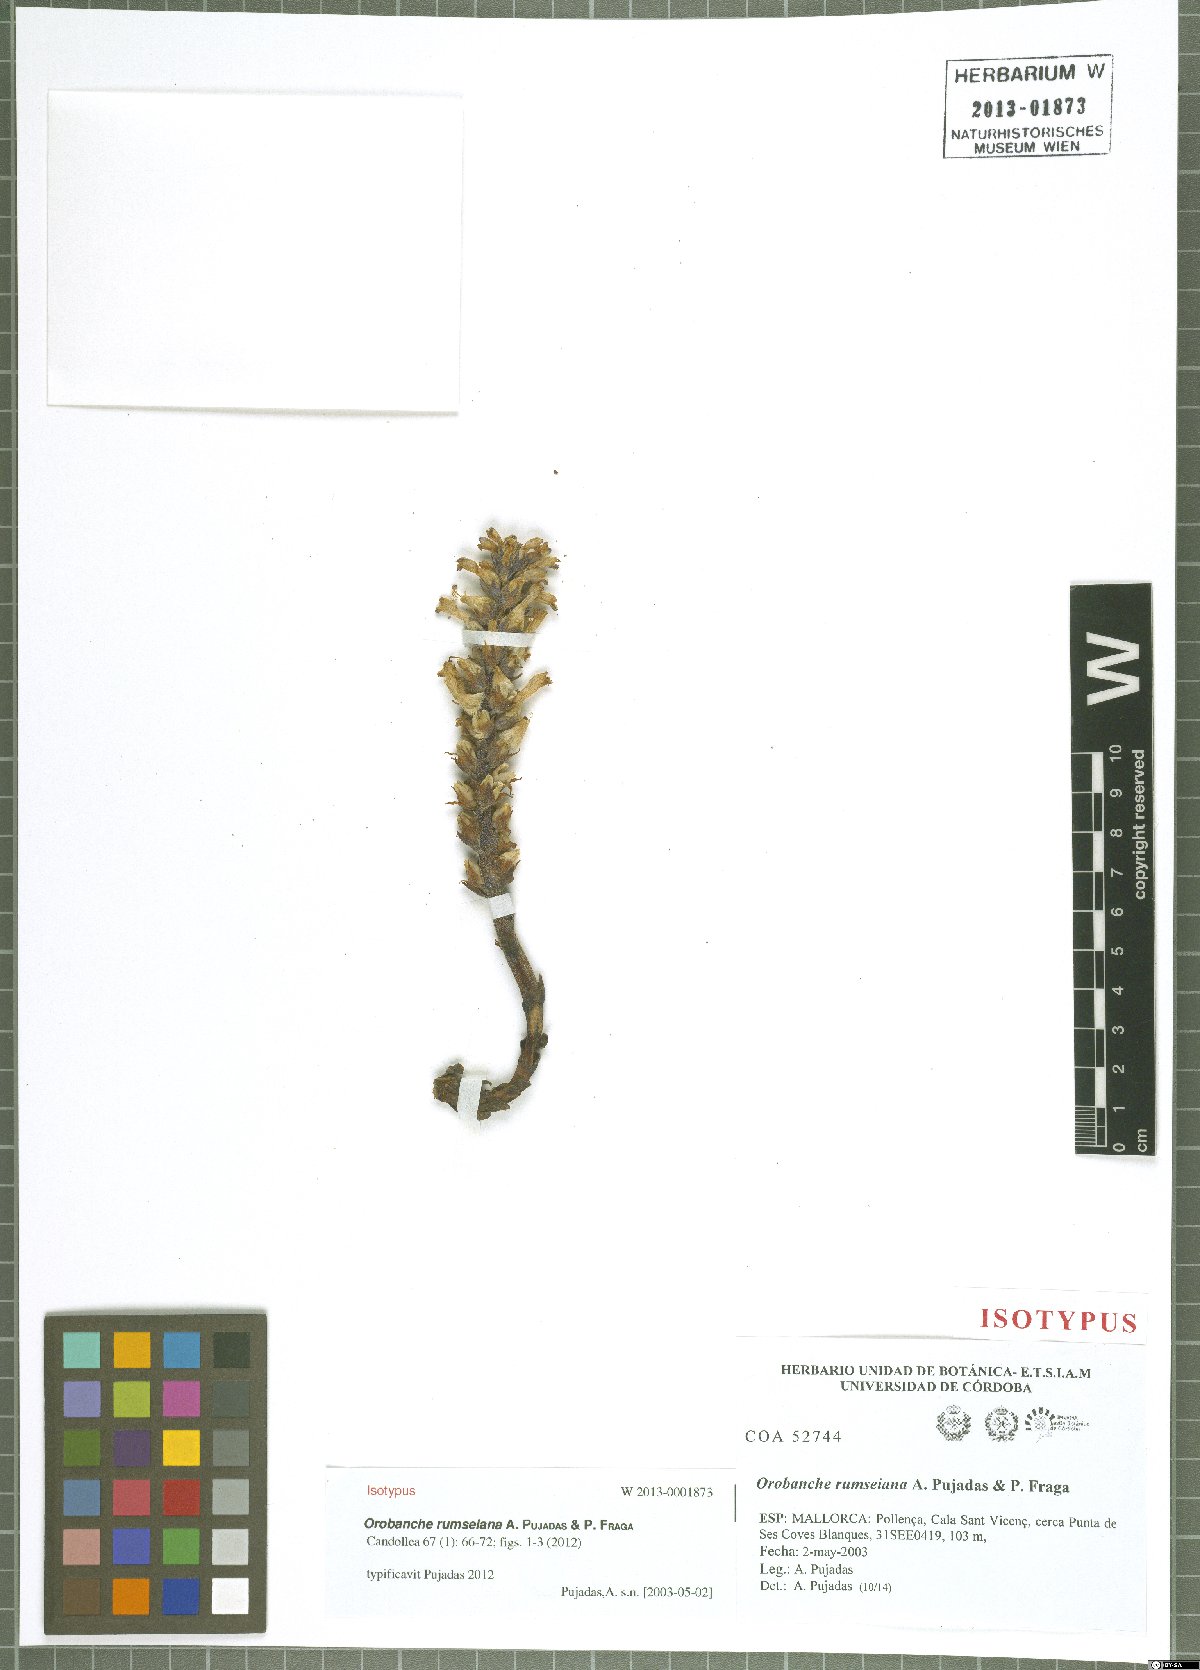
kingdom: Plantae
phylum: Tracheophyta
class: Magnoliopsida
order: Lamiales
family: Orobanchaceae
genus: Phelipanche
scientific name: Phelipanche rosmarina
